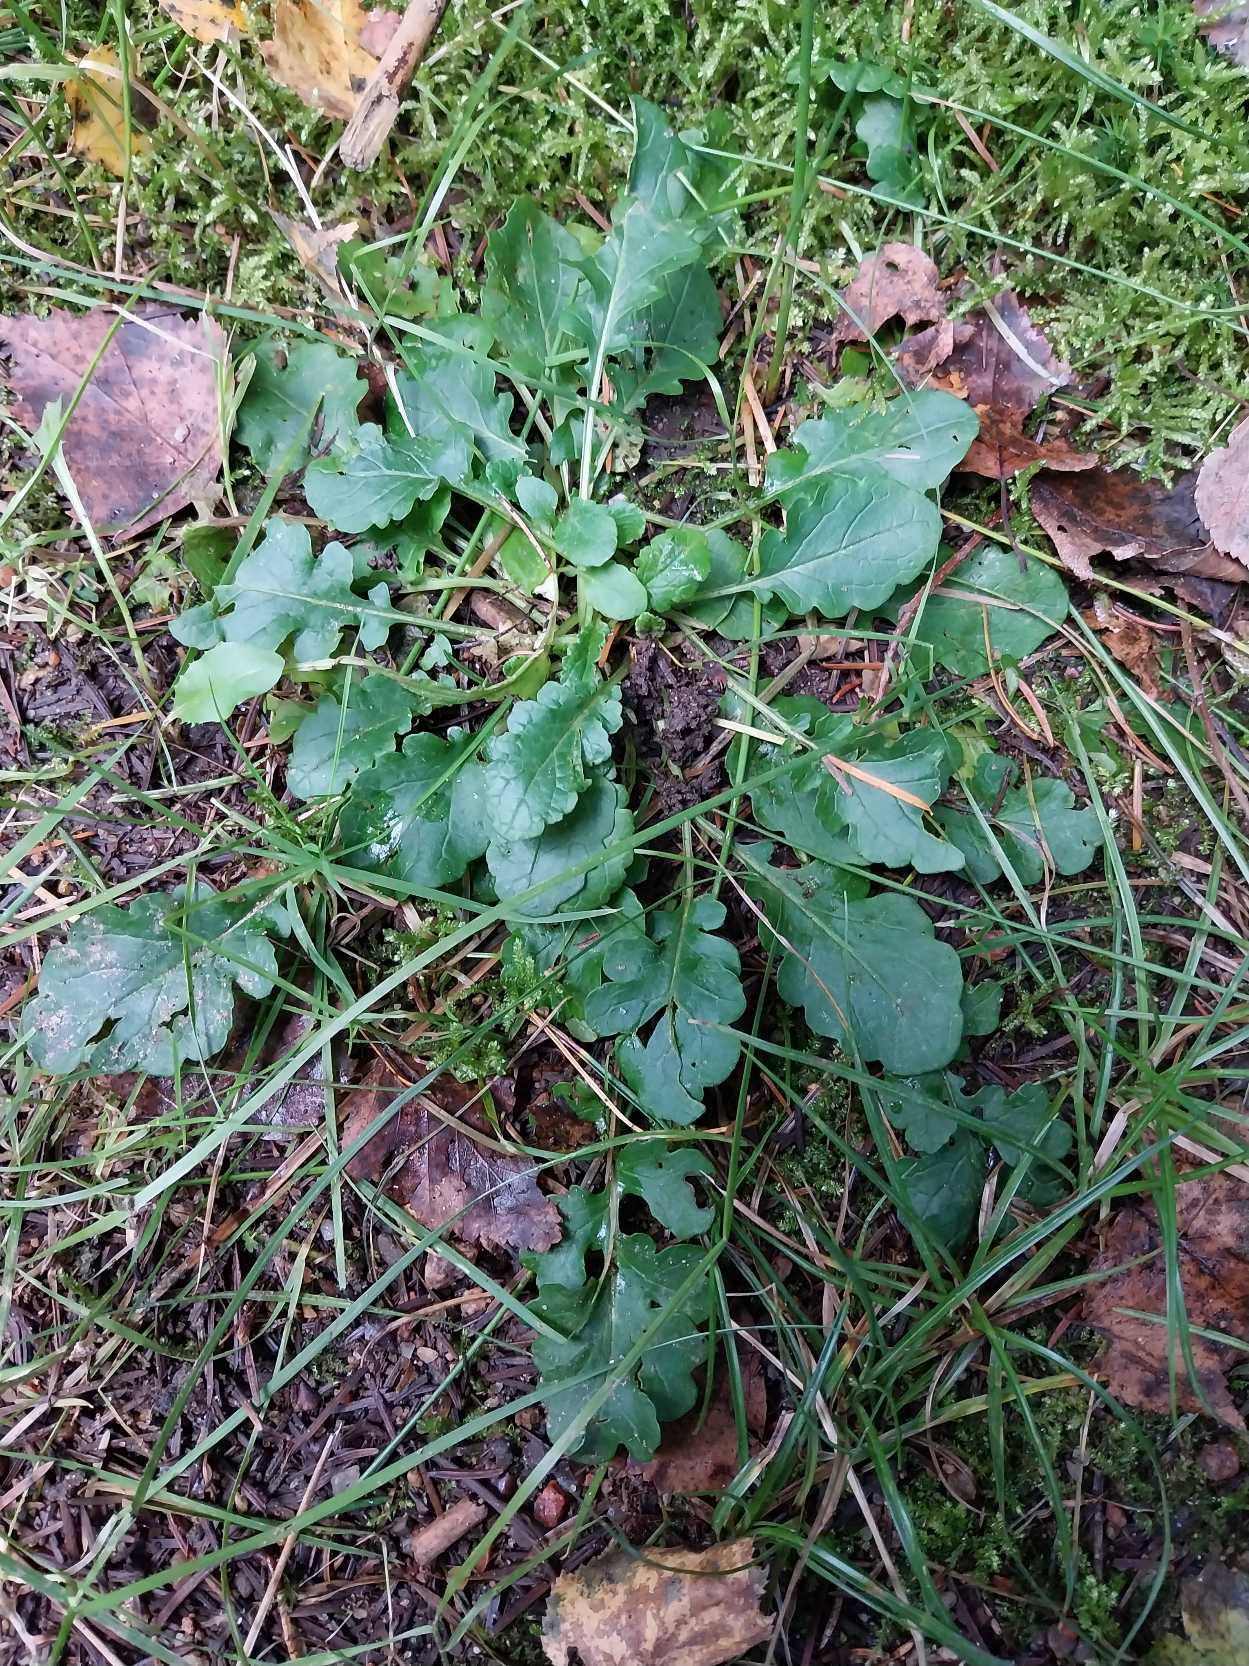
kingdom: Plantae
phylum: Tracheophyta
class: Magnoliopsida
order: Asterales
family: Asteraceae
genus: Jacobaea
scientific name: Jacobaea vulgaris
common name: Eng-brandbæger
